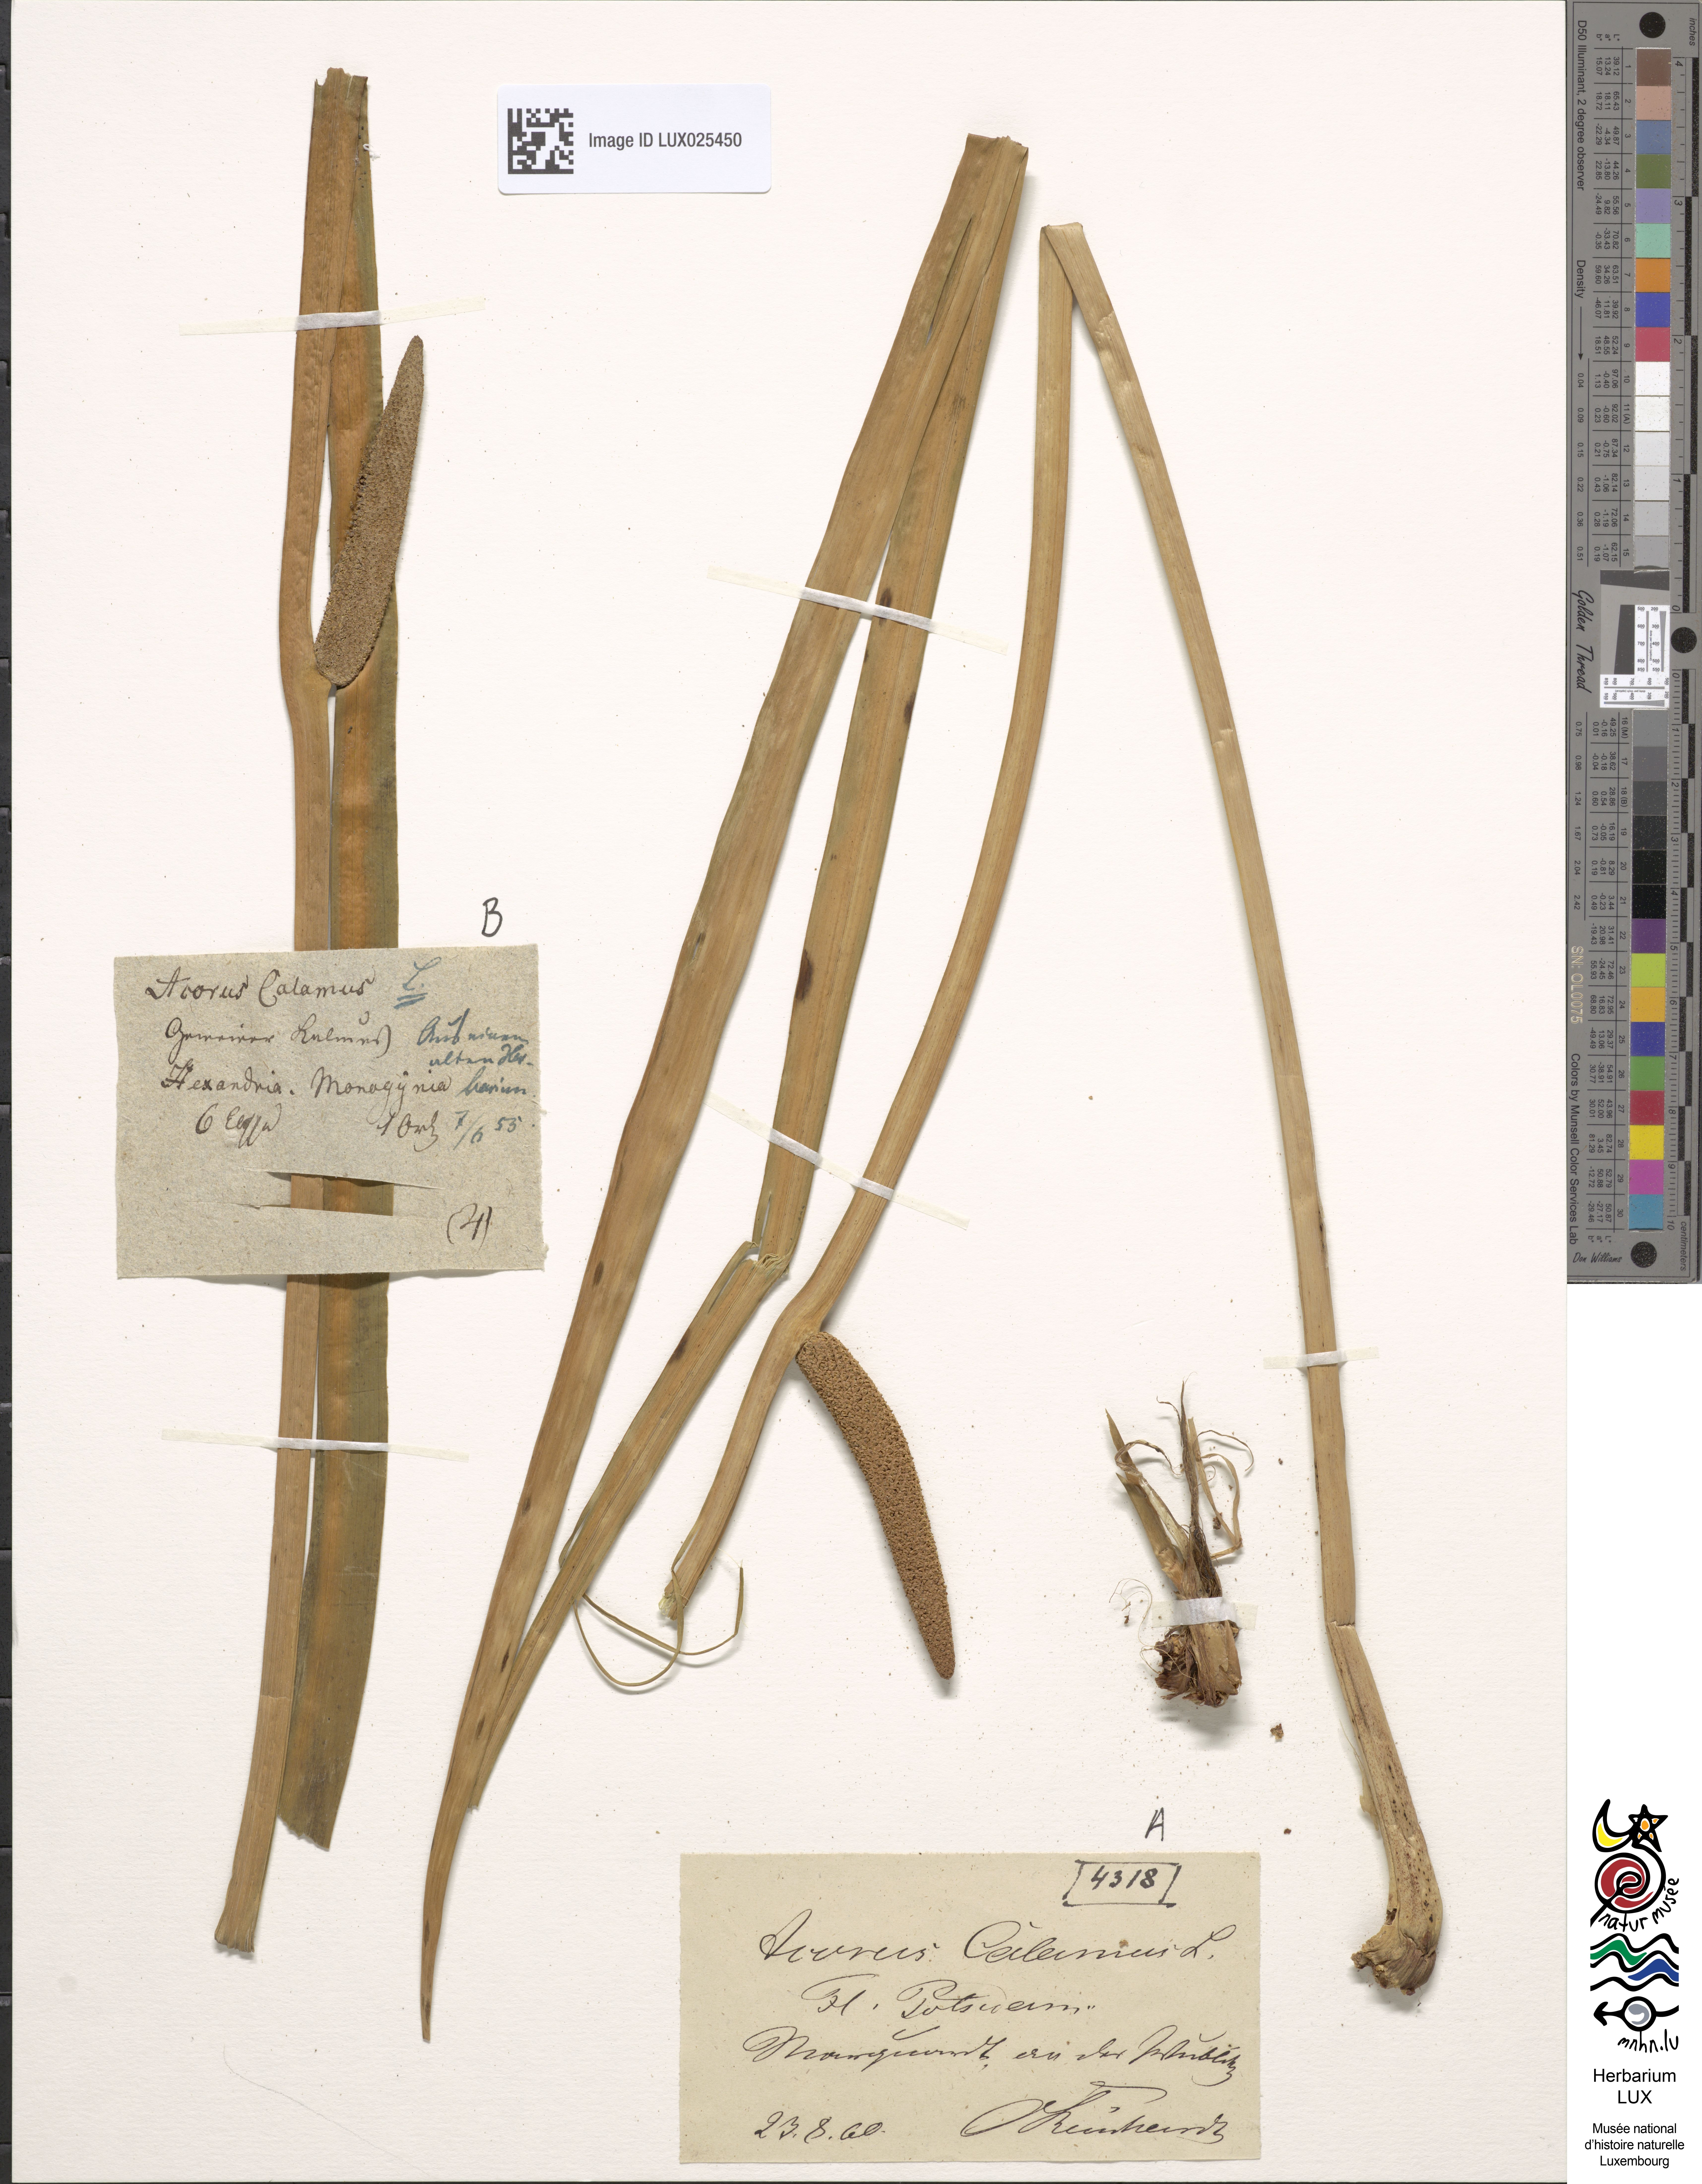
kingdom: Plantae
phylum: Tracheophyta
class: Liliopsida
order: Acorales
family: Acoraceae
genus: Acorus
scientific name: Acorus calamus
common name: Sweet-flag
